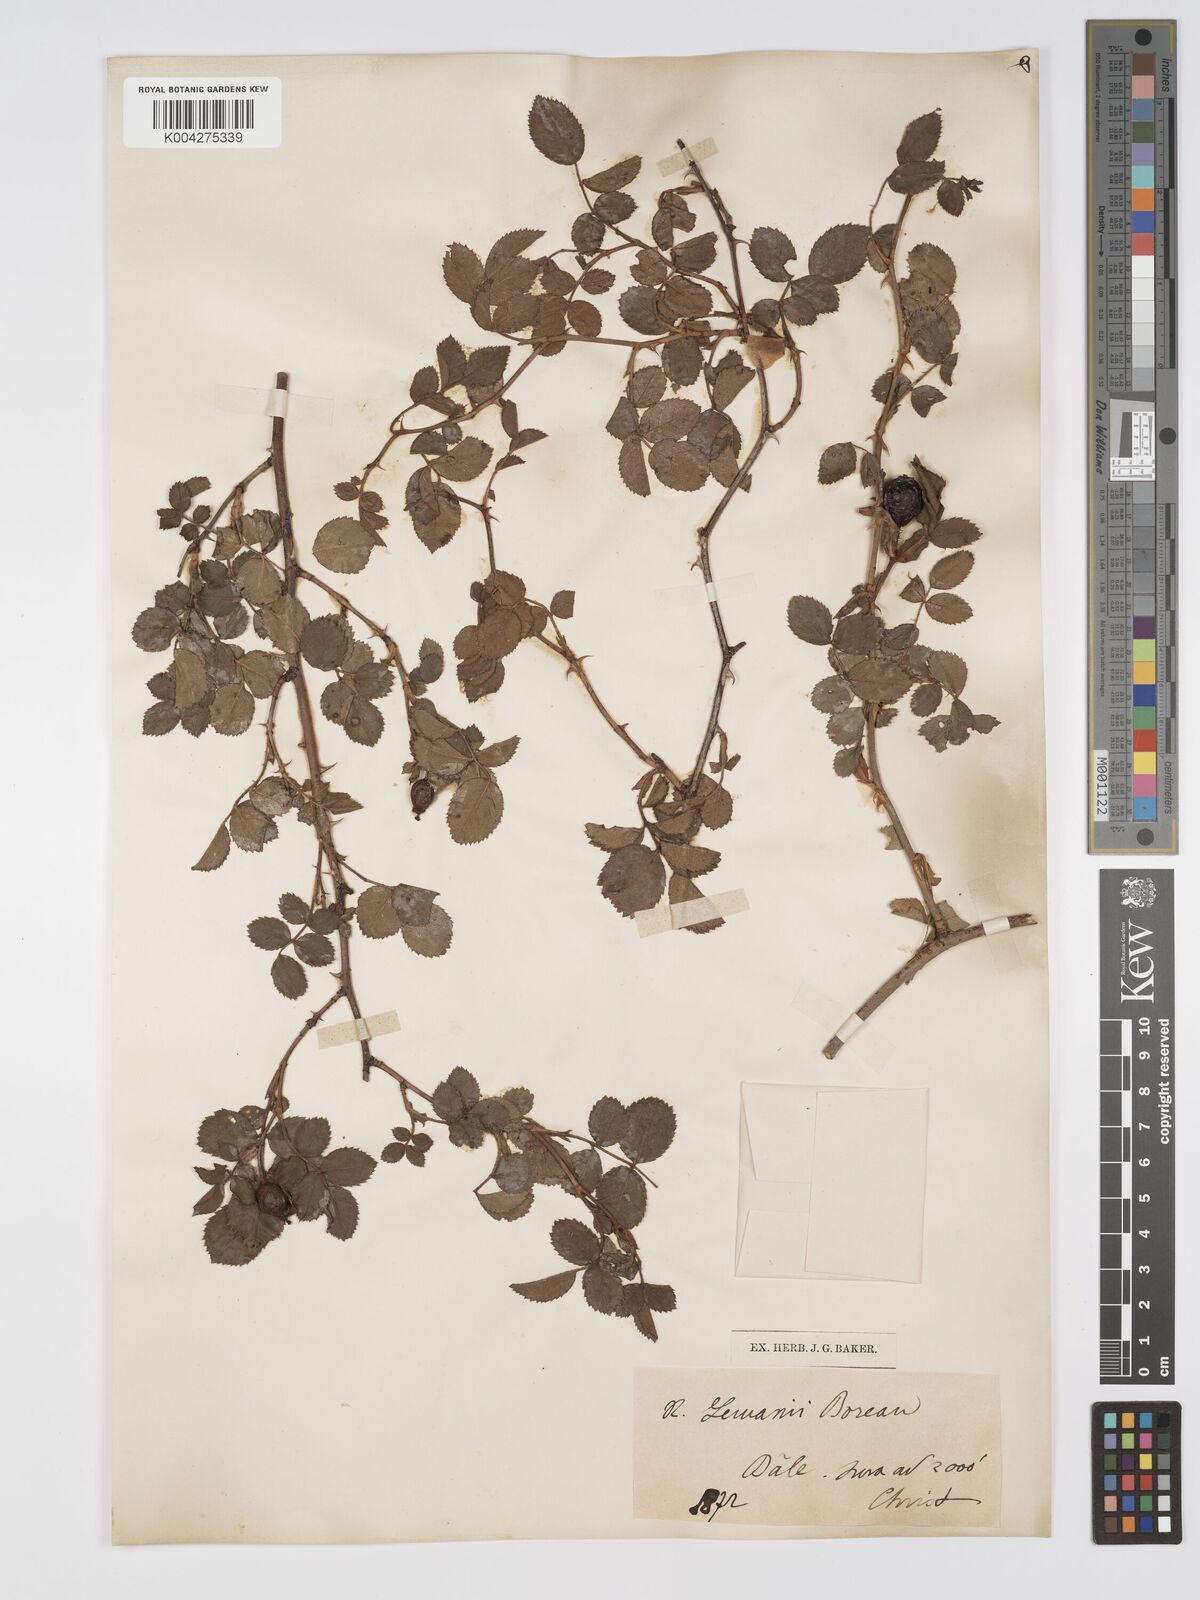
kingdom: Plantae
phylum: Tracheophyta
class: Magnoliopsida
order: Rosales
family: Rosaceae
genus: Rosa
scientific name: Rosa
